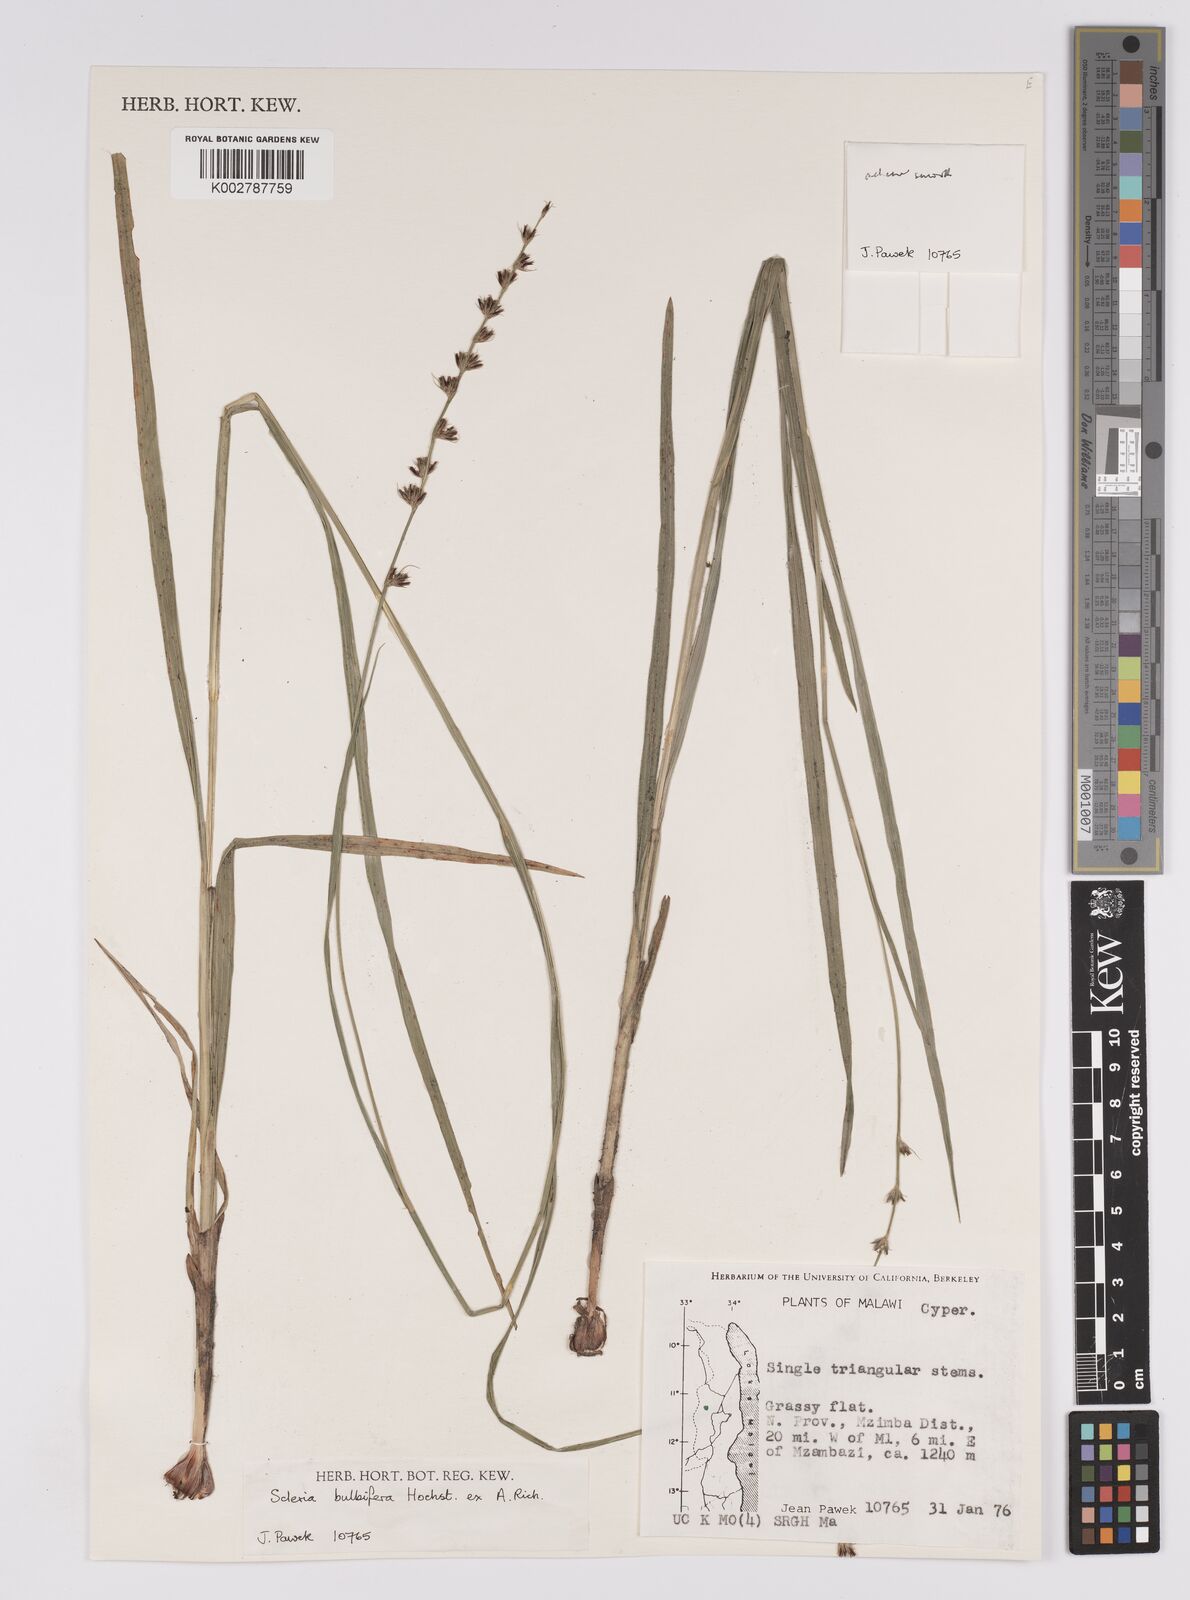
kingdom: Plantae
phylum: Tracheophyta
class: Liliopsida
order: Poales
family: Cyperaceae
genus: Scleria
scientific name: Scleria bulbifera
